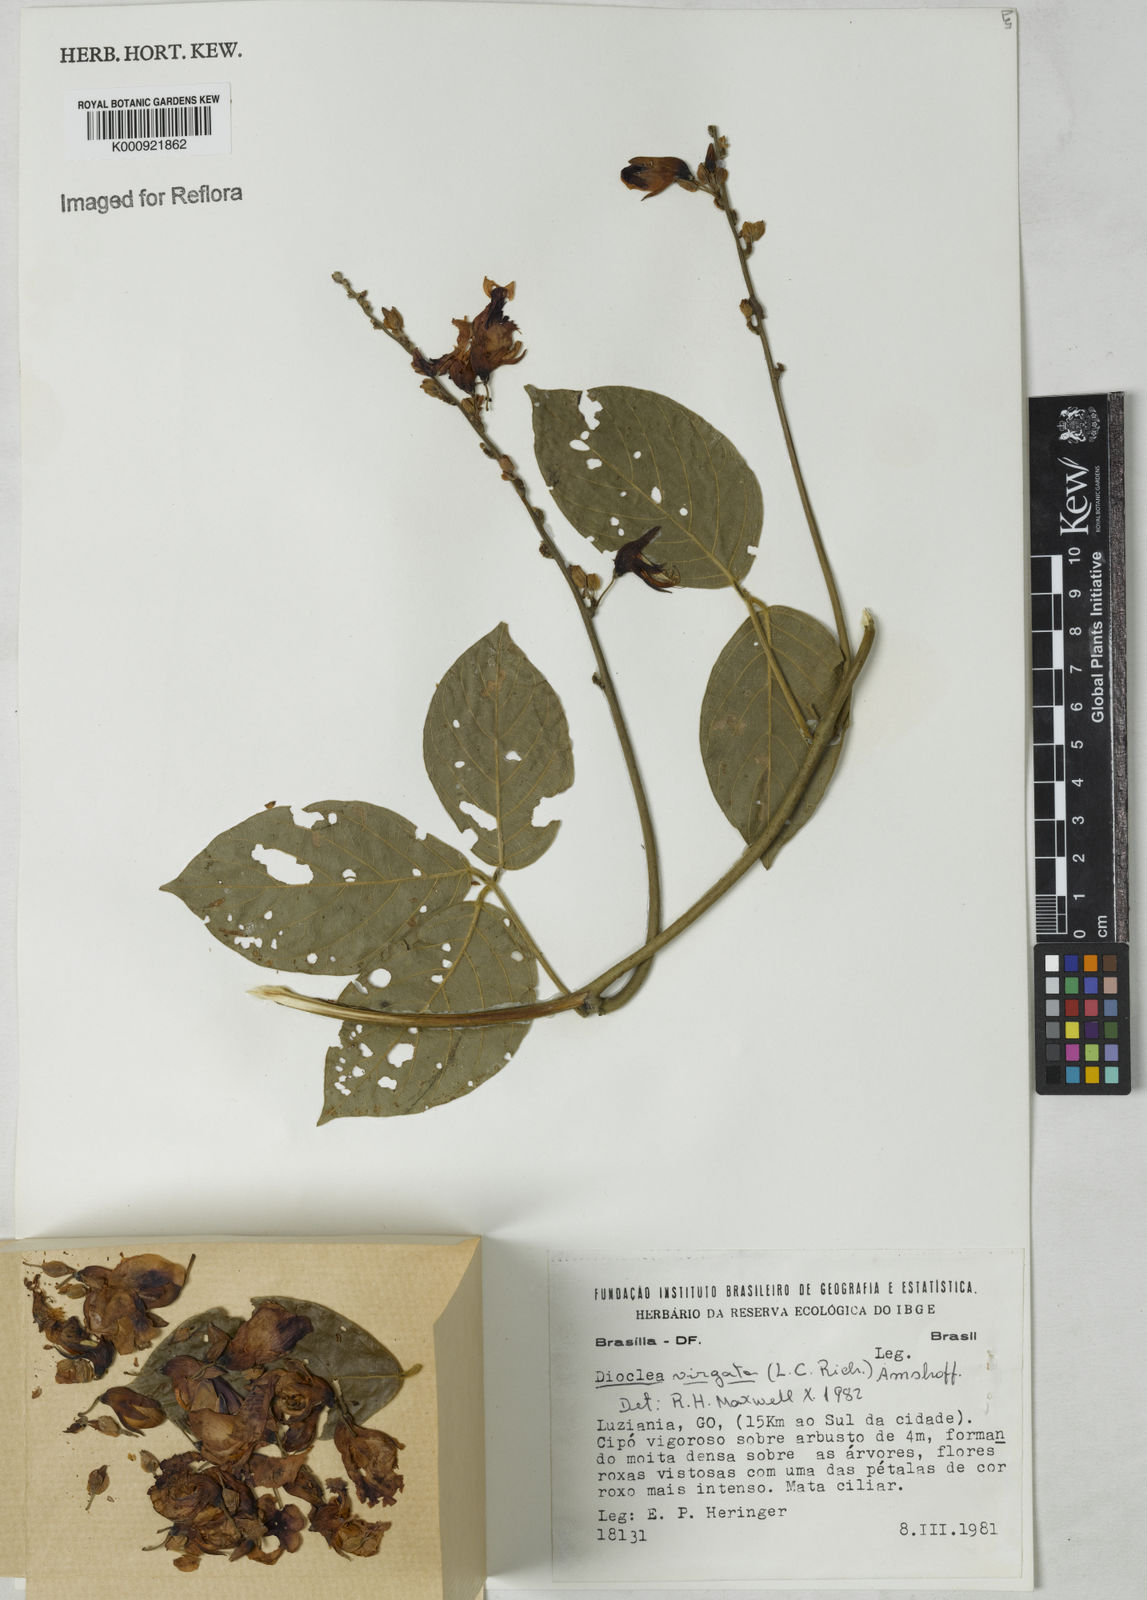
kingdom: Plantae
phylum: Tracheophyta
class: Magnoliopsida
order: Fabales
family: Fabaceae
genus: Dioclea
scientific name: Dioclea virgata
